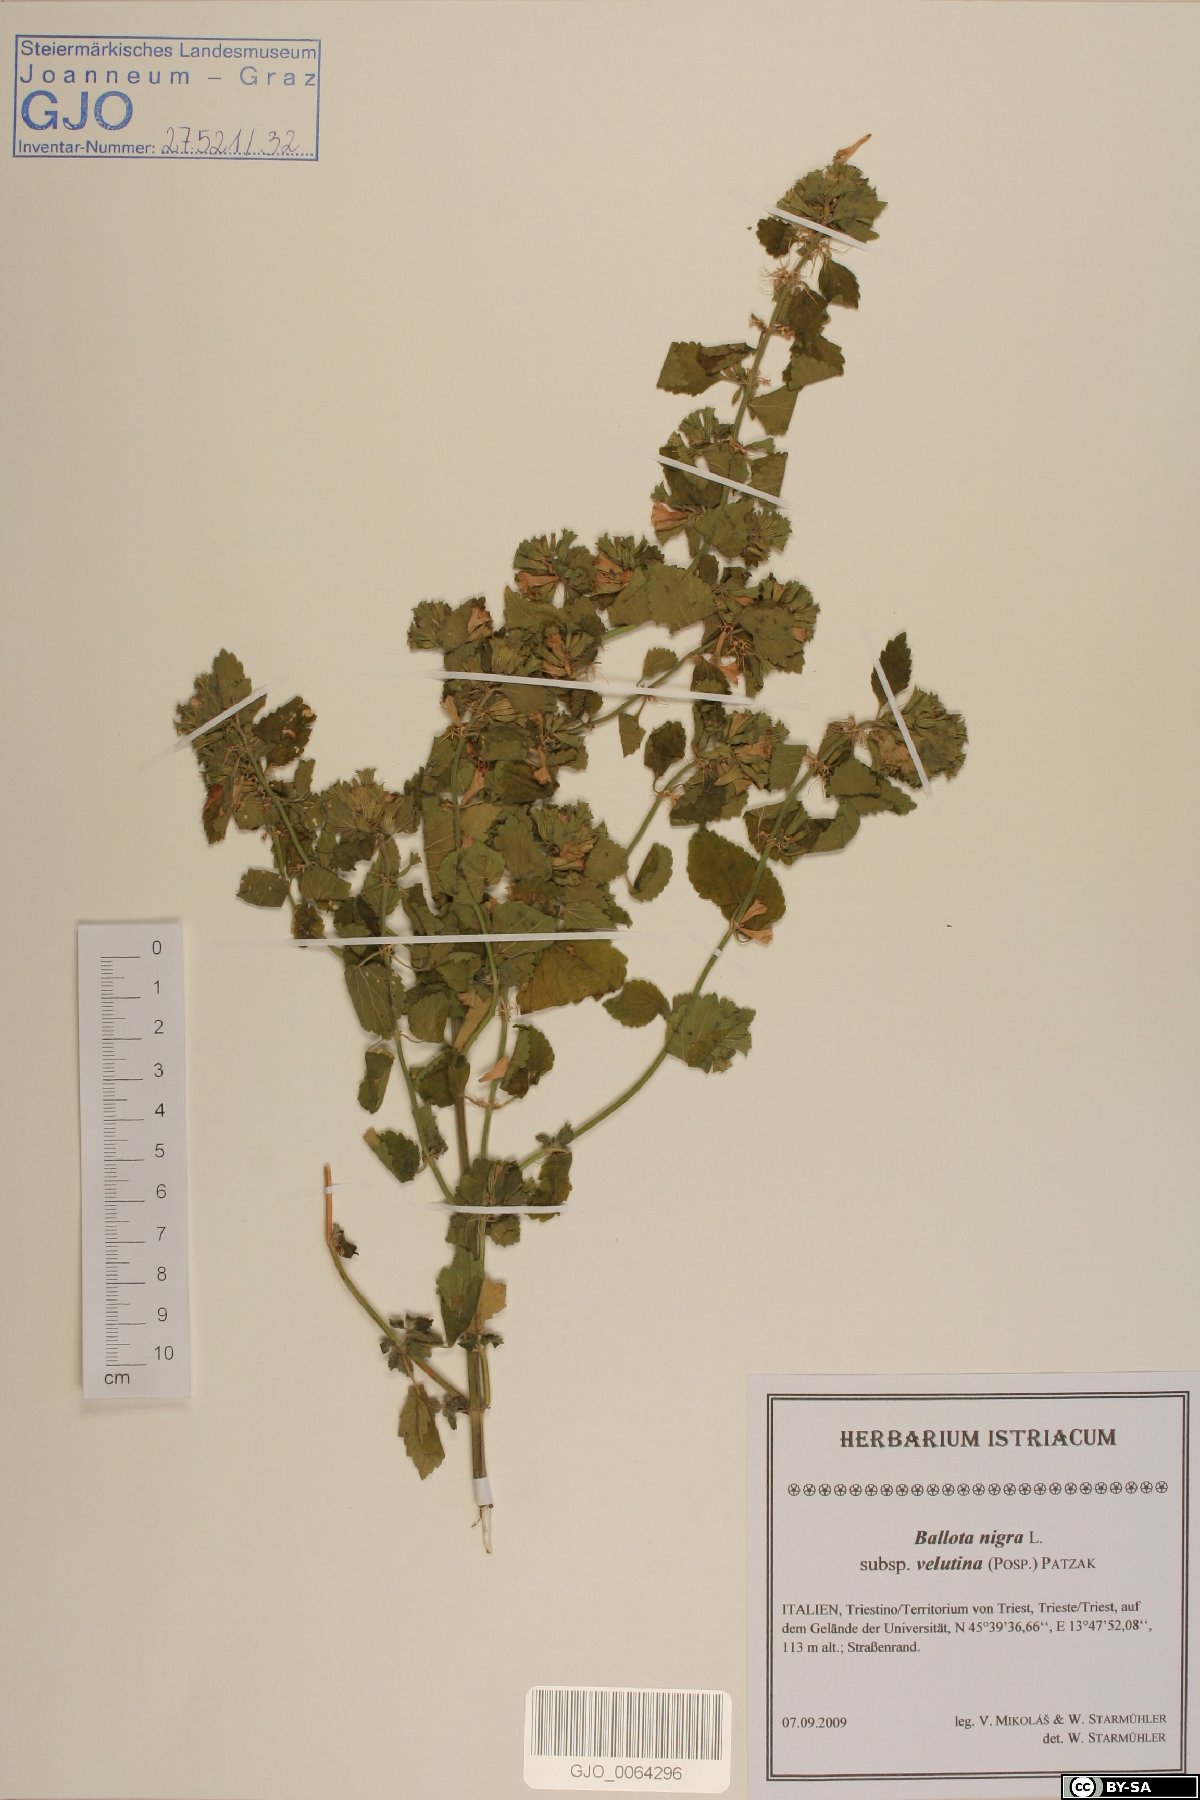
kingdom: Plantae
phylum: Tracheophyta
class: Magnoliopsida
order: Lamiales
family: Lamiaceae
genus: Ballota
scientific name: Ballota nigra
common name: Black horehound
